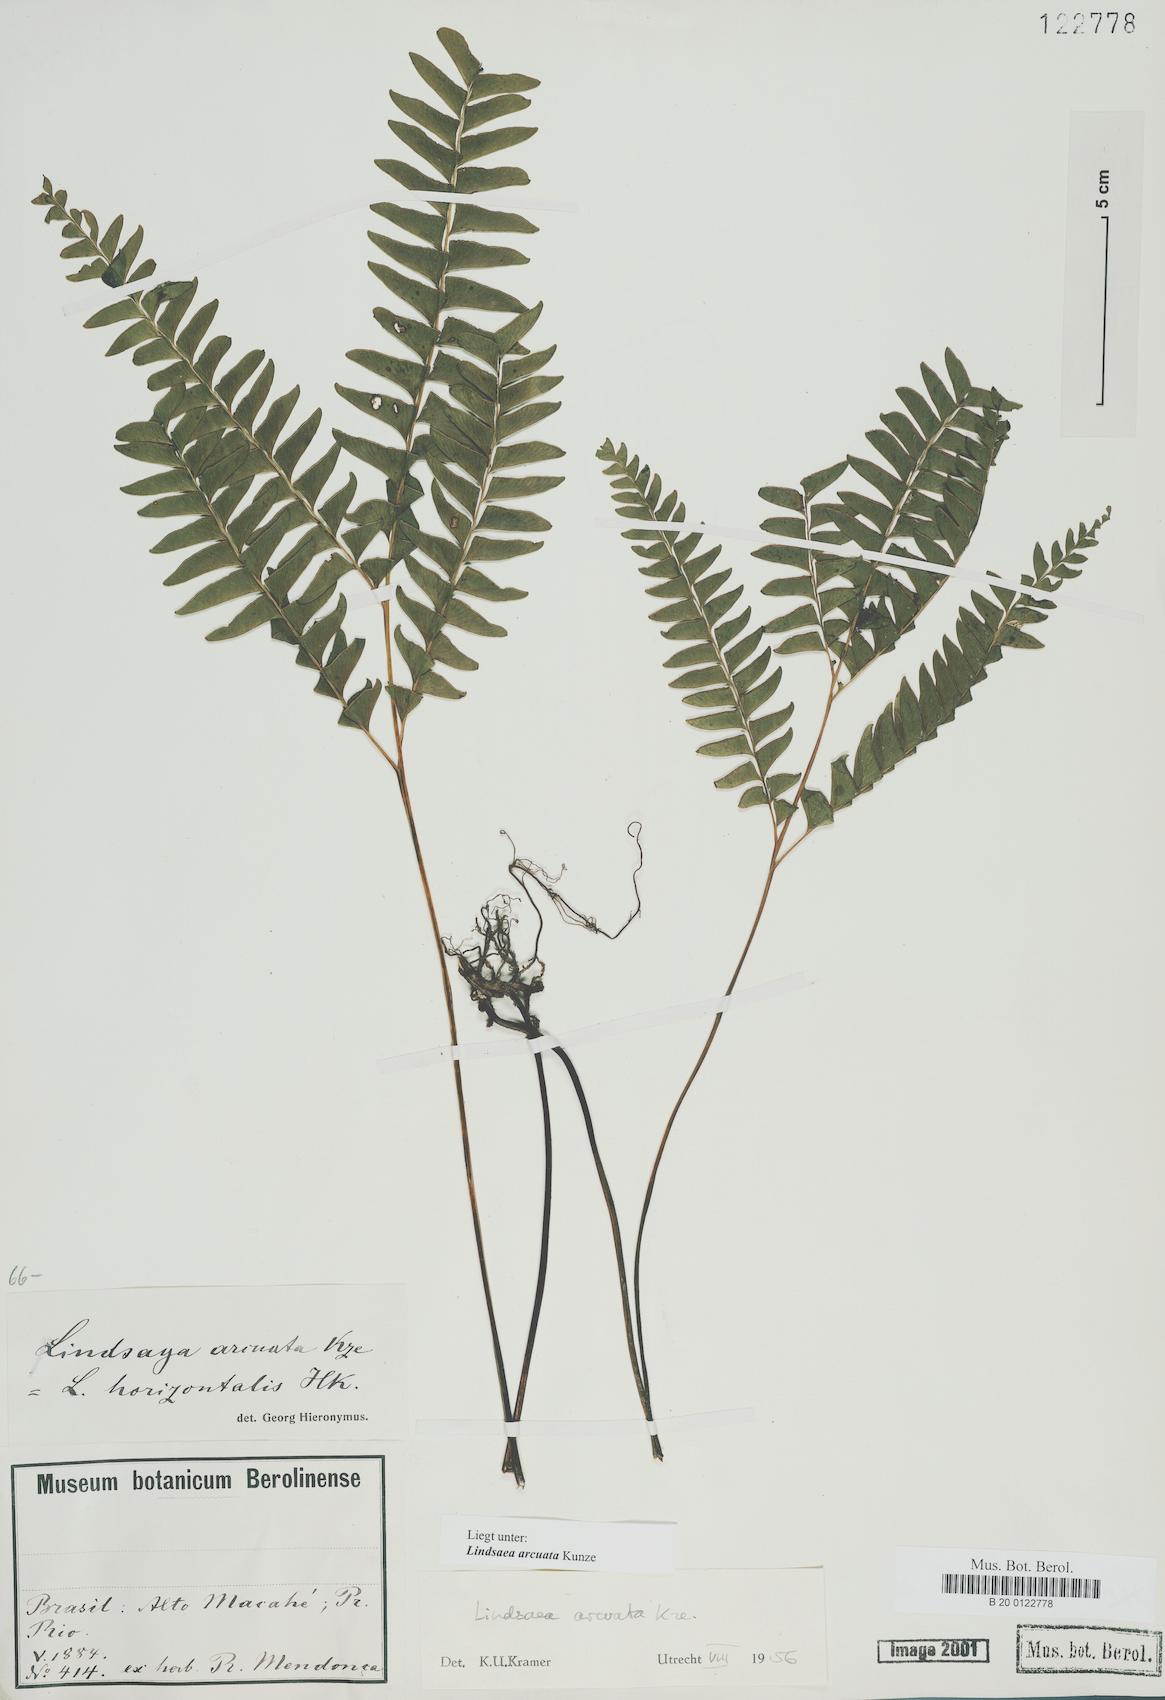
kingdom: Plantae
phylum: Tracheophyta
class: Polypodiopsida
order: Polypodiales
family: Lindsaeaceae
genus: Lindsaea
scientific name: Lindsaea arcuata
